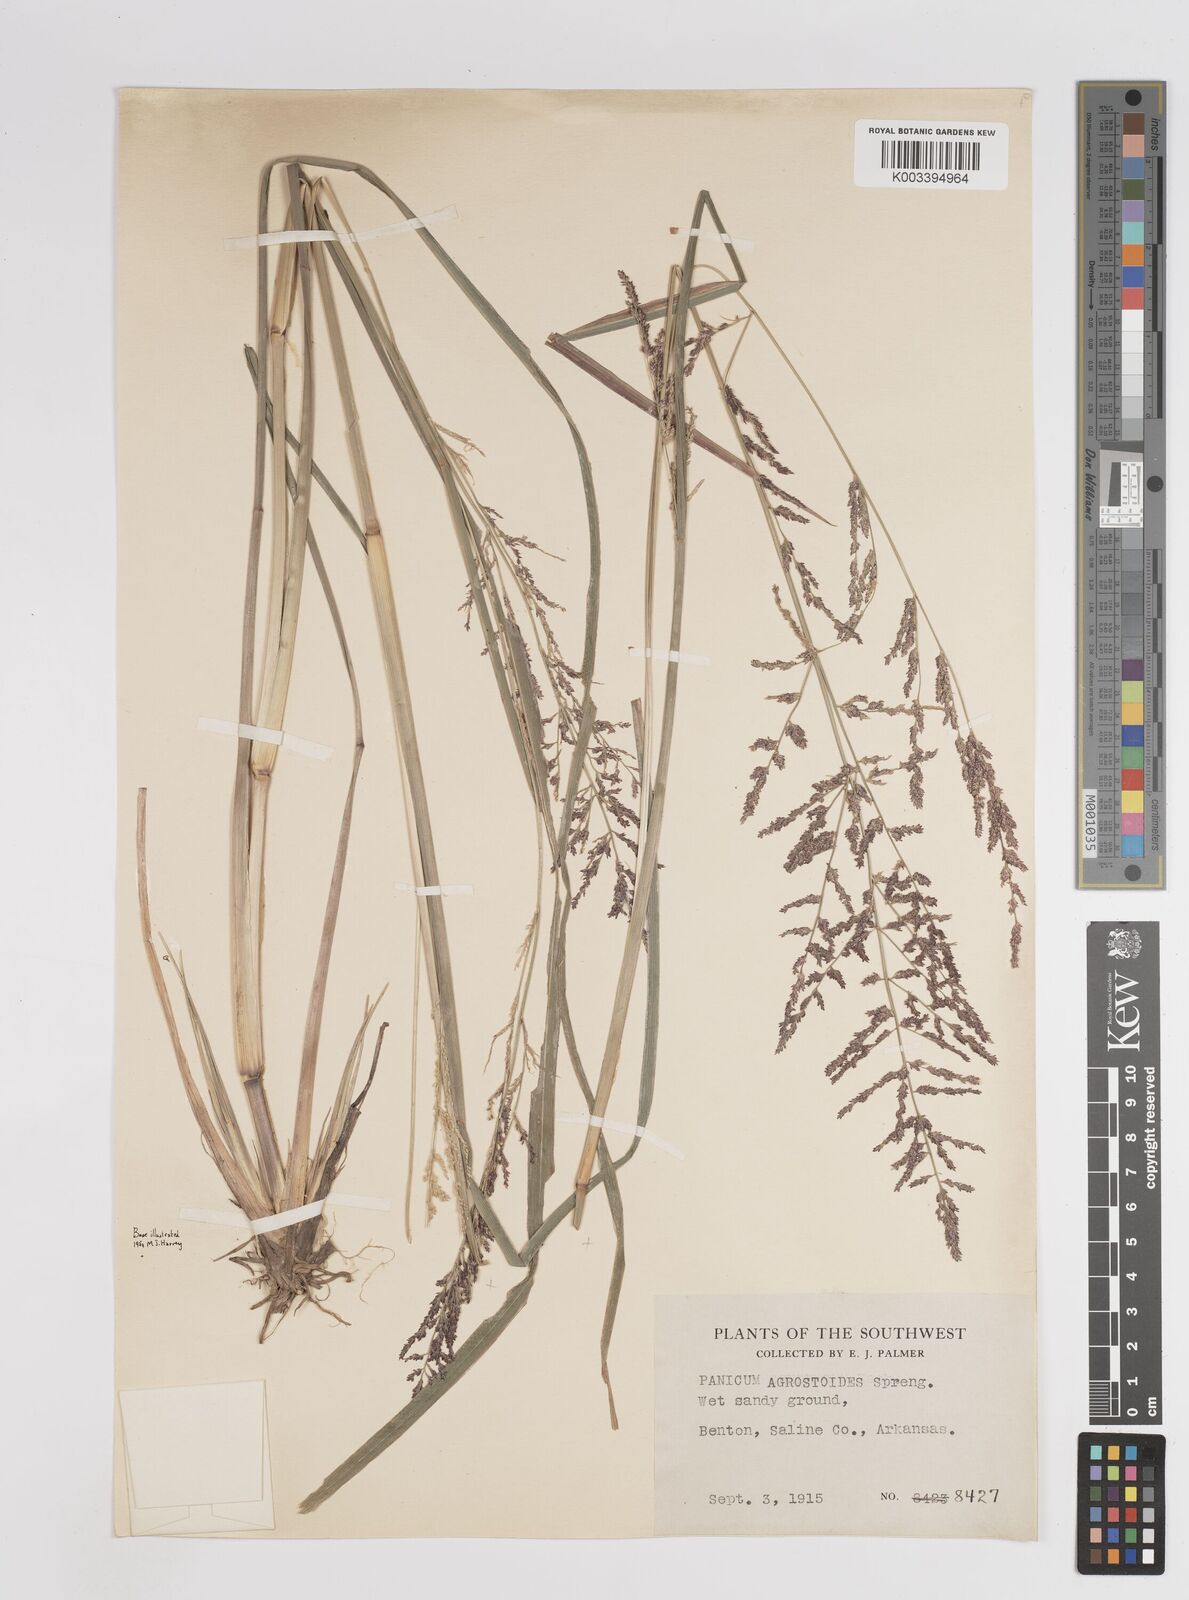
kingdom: Plantae
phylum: Tracheophyta
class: Liliopsida
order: Poales
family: Poaceae
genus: Steinchisma
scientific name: Steinchisma laxum
